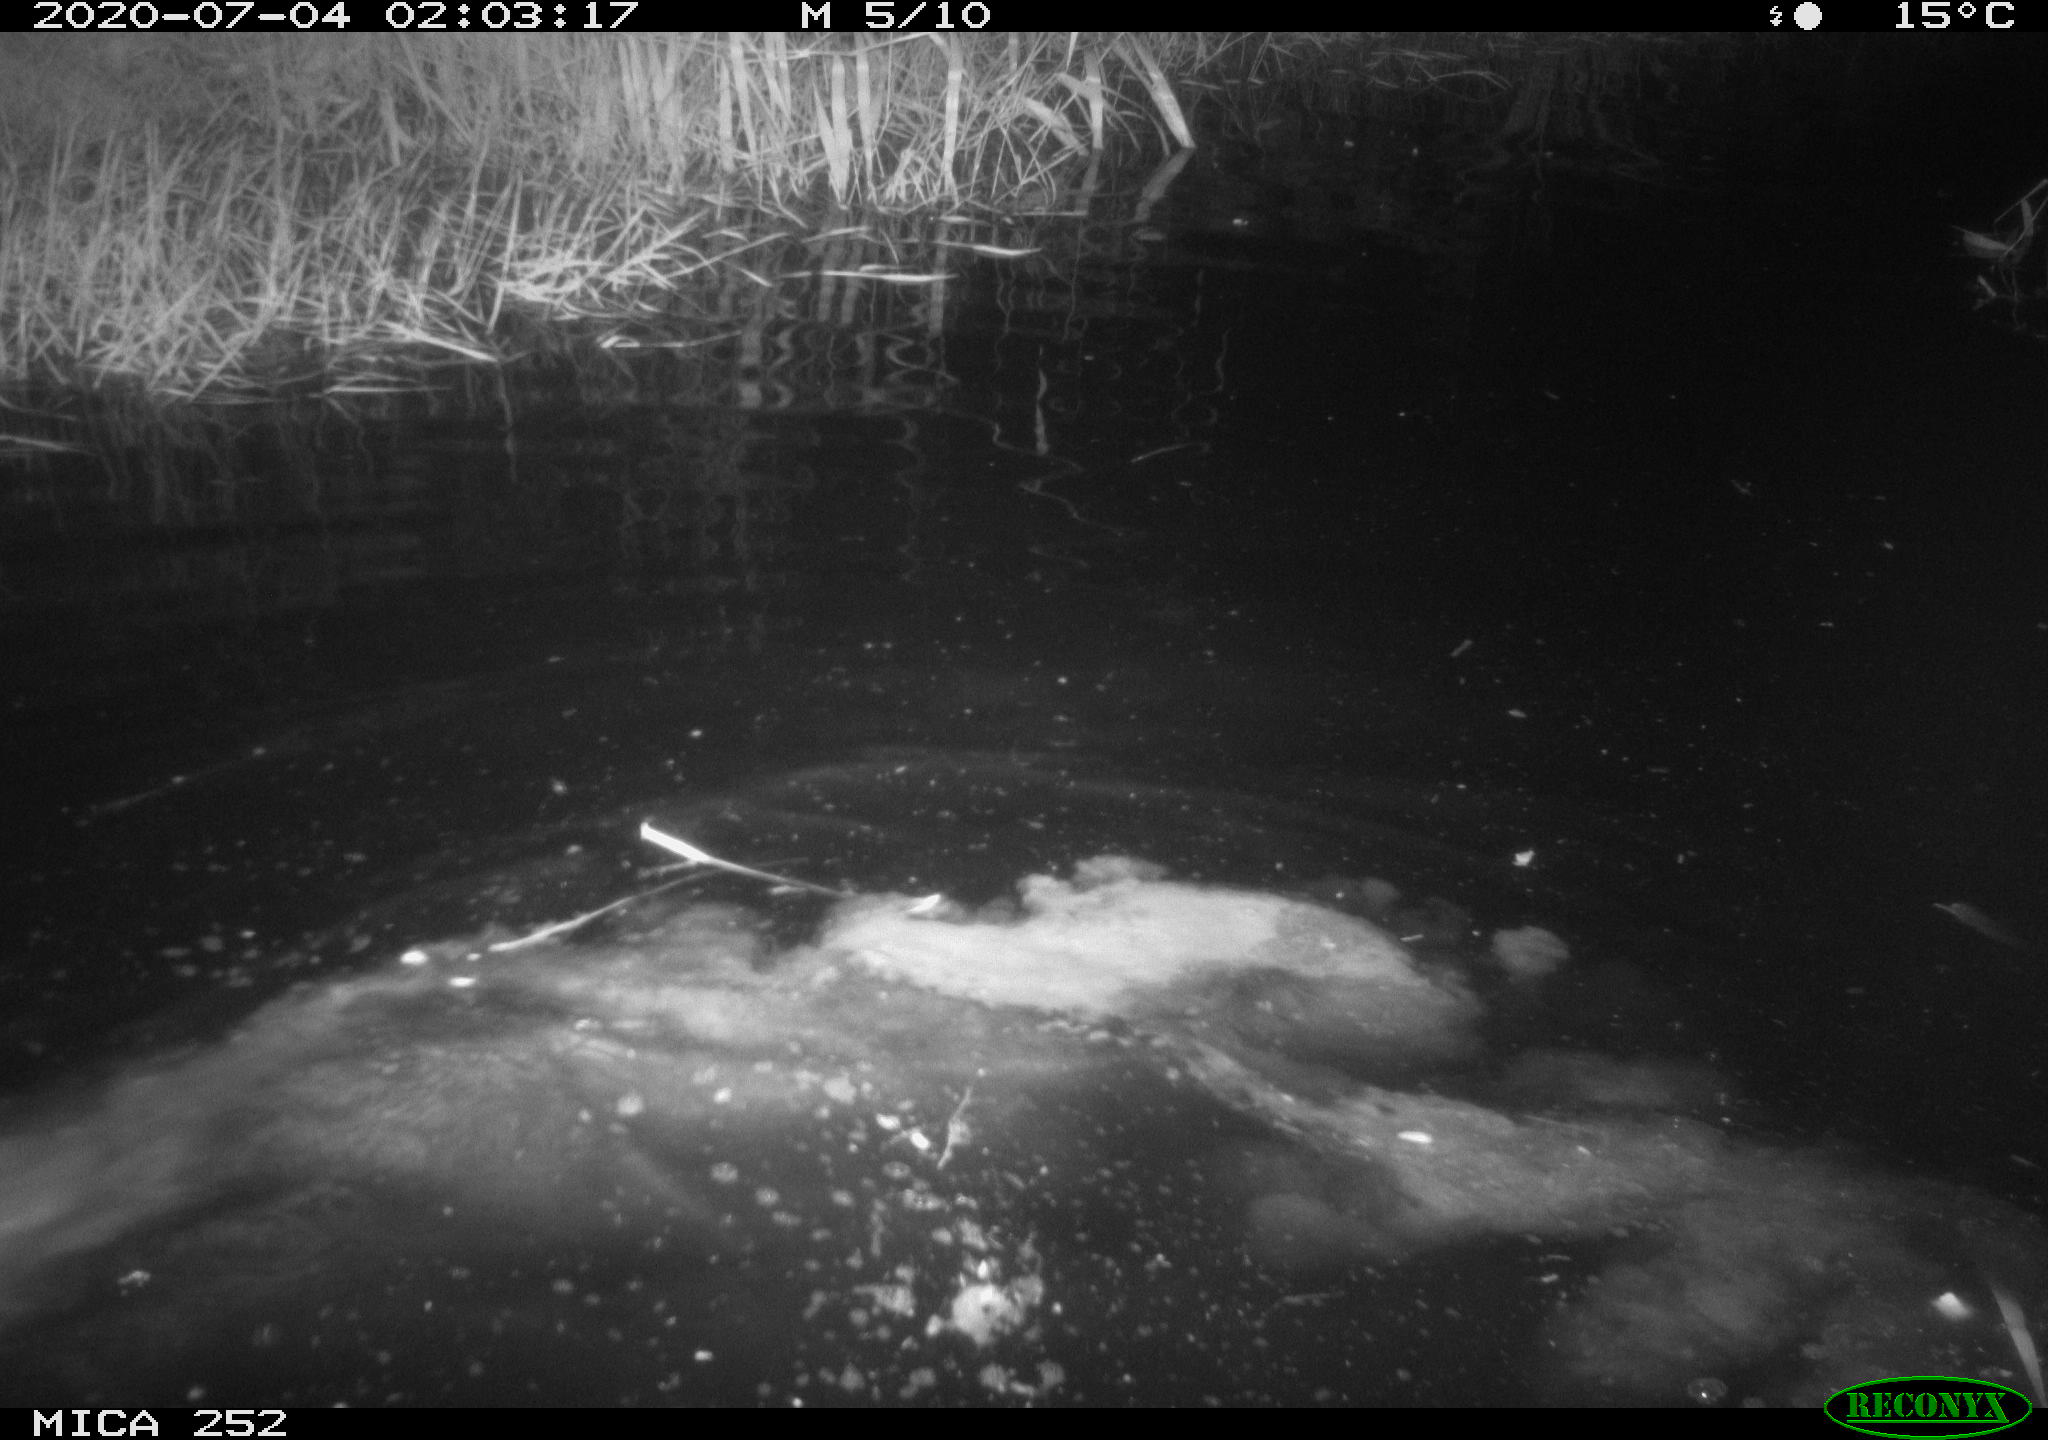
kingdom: Animalia
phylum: Chordata
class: Mammalia
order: Rodentia
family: Castoridae
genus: Castor
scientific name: Castor fiber
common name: Eurasian beaver
